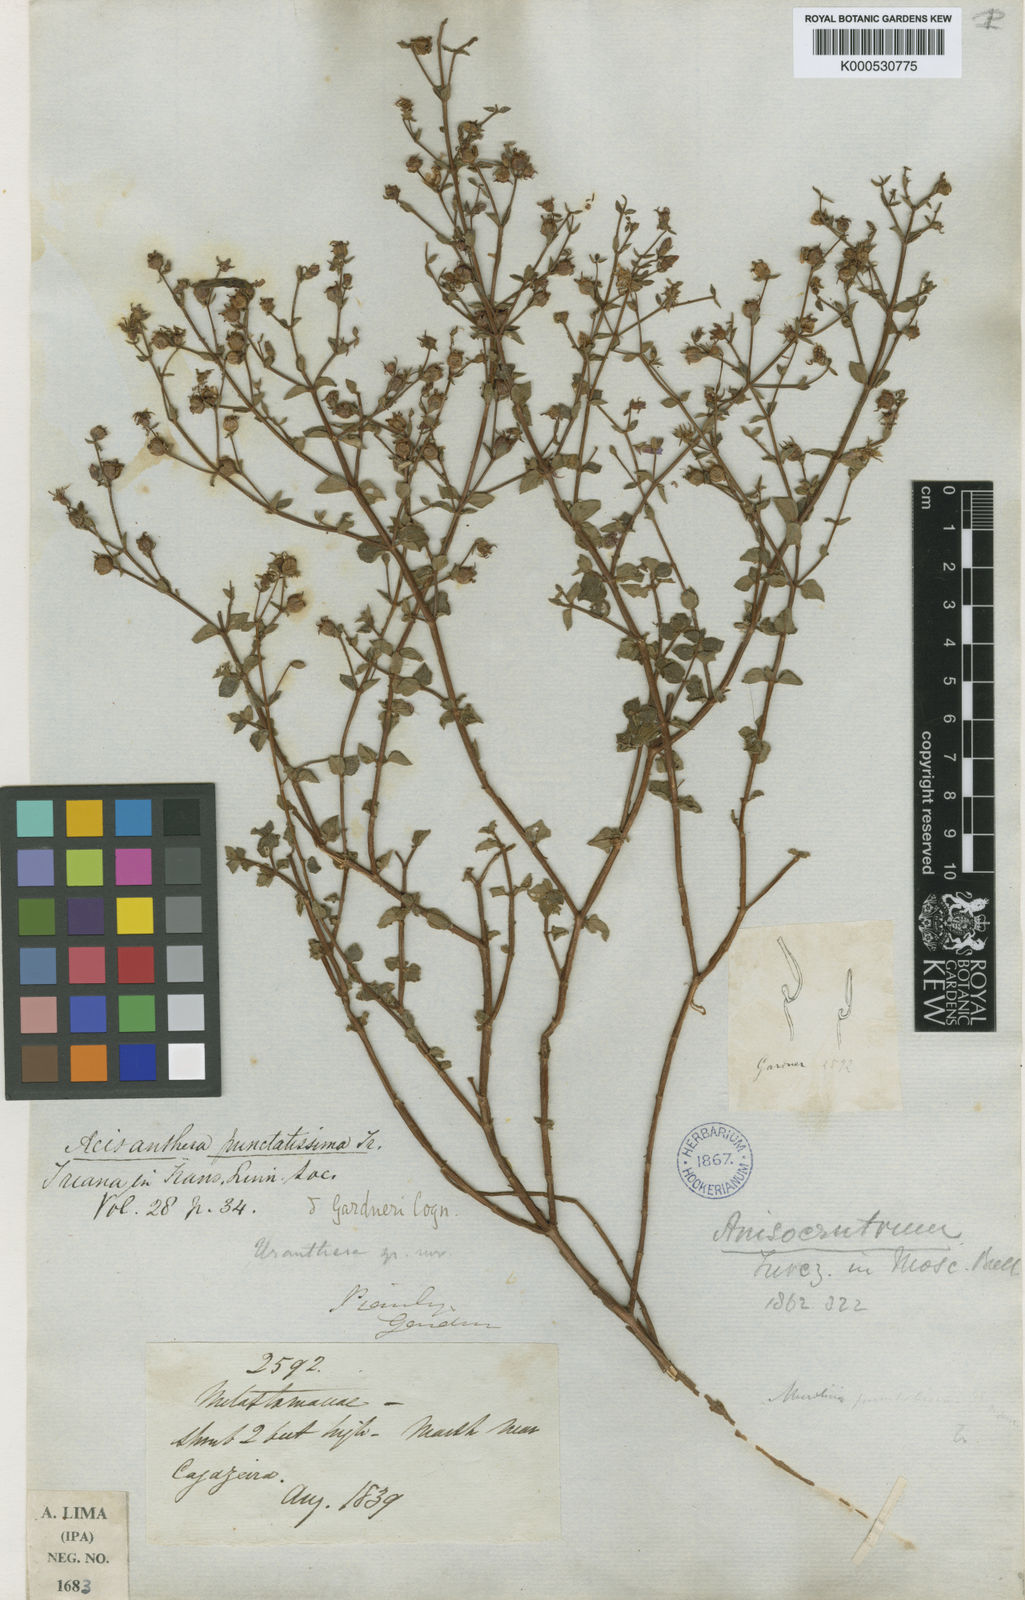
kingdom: Plantae
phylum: Tracheophyta
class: Magnoliopsida
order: Myrtales
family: Melastomataceae
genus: Acisanthera
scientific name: Acisanthera quadrata
